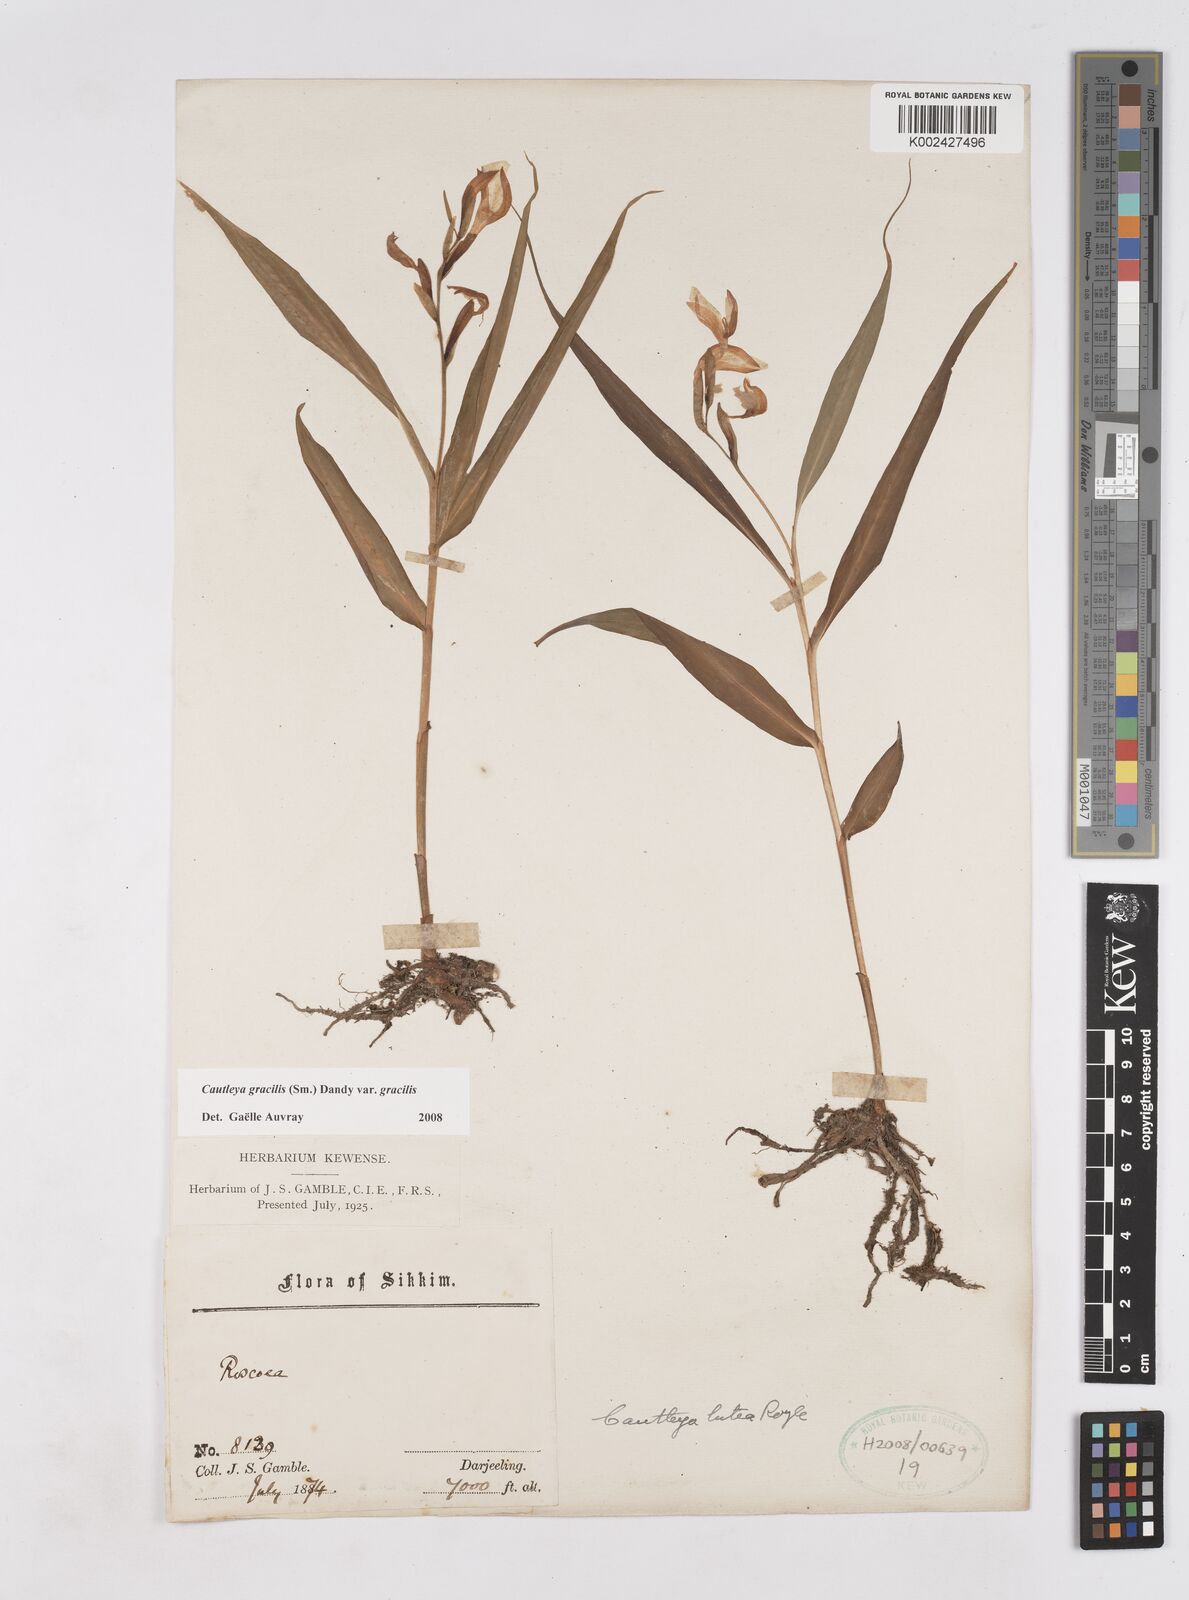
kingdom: Plantae
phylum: Tracheophyta
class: Liliopsida
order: Zingiberales
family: Zingiberaceae
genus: Cautleya
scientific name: Cautleya gracilis
